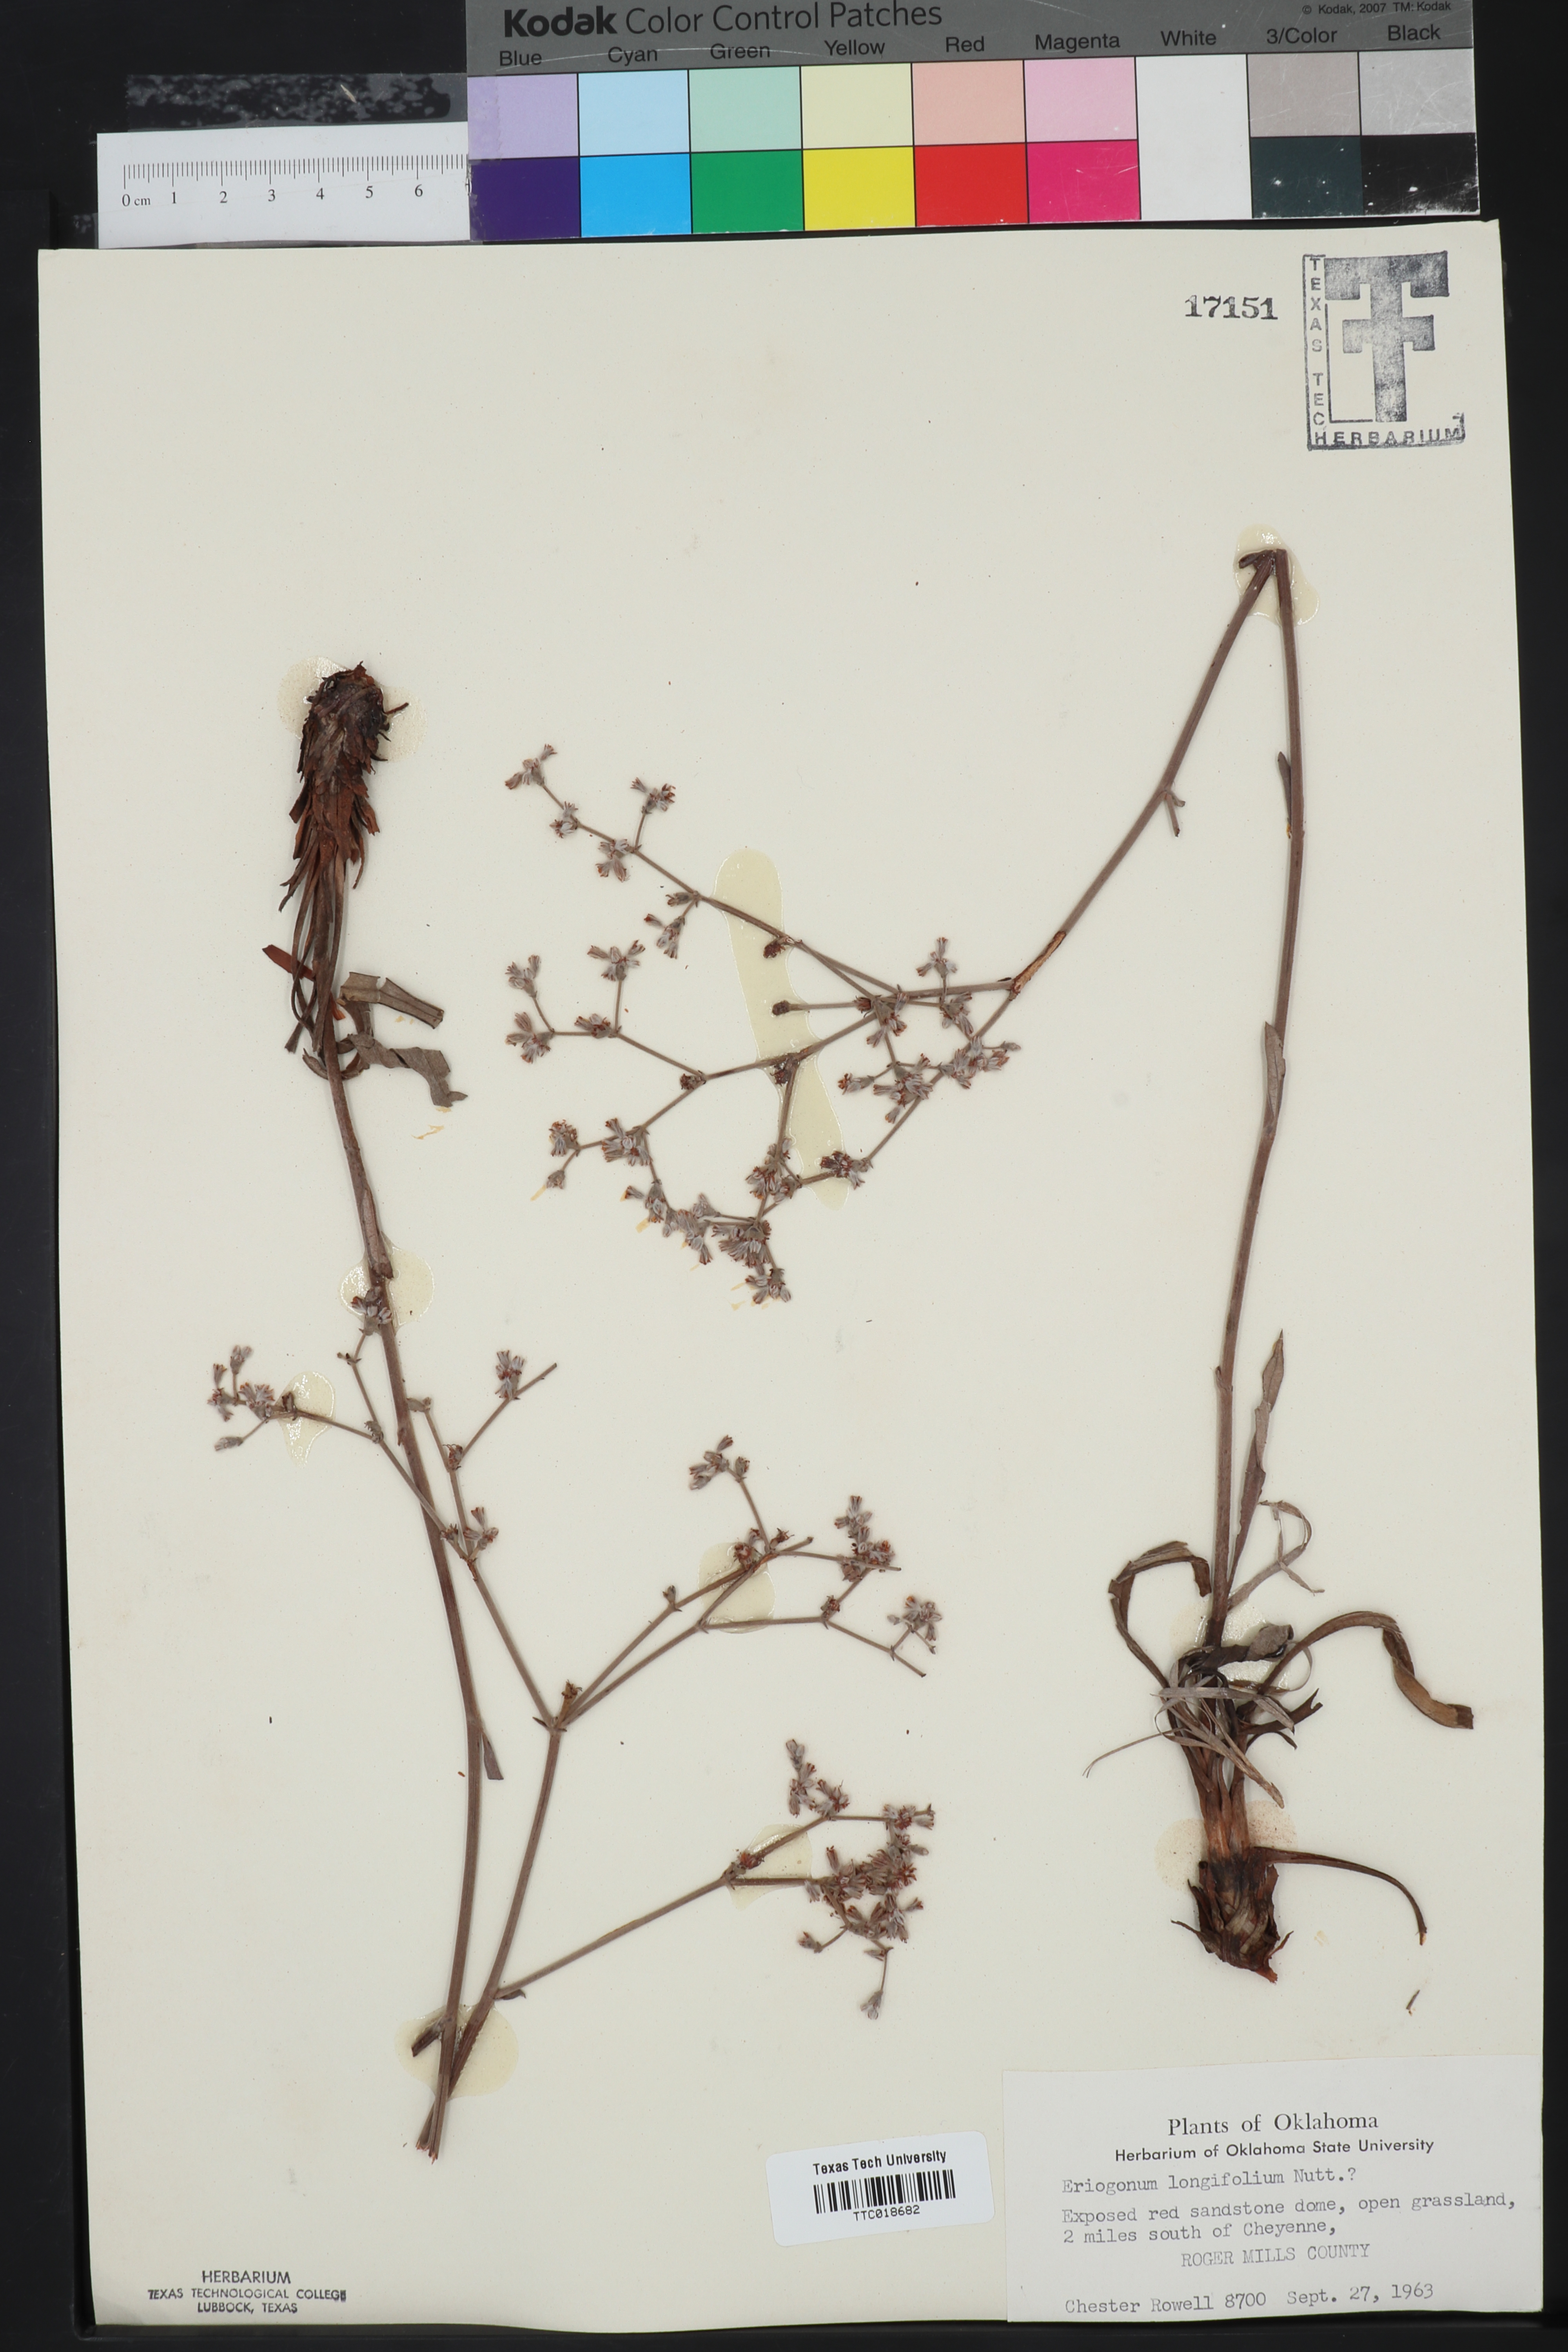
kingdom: Plantae
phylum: Tracheophyta
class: Magnoliopsida
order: Caryophyllales
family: Polygonaceae
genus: Eriogonum
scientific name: Eriogonum longifolium
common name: Longleaf wild buckwheat
